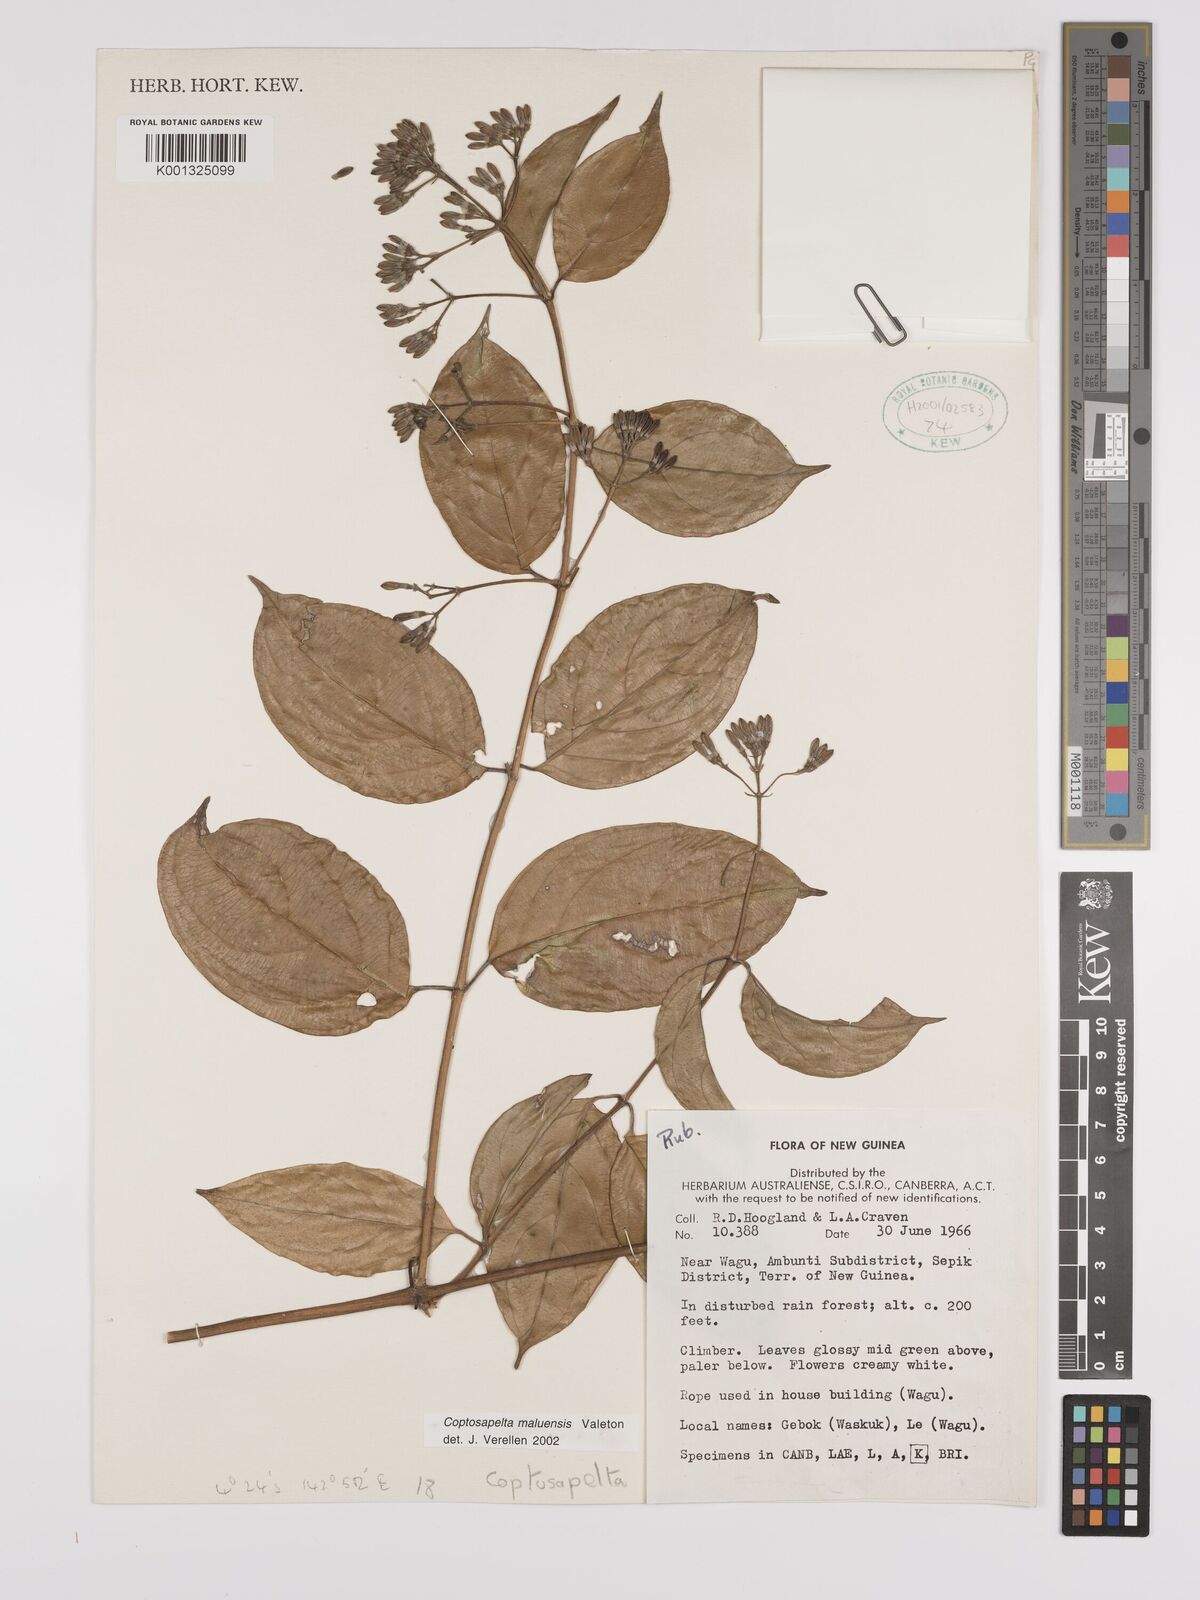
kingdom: Plantae
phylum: Tracheophyta
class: Magnoliopsida
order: Gentianales
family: Rubiaceae
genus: Coptosapelta
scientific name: Coptosapelta maluensis
